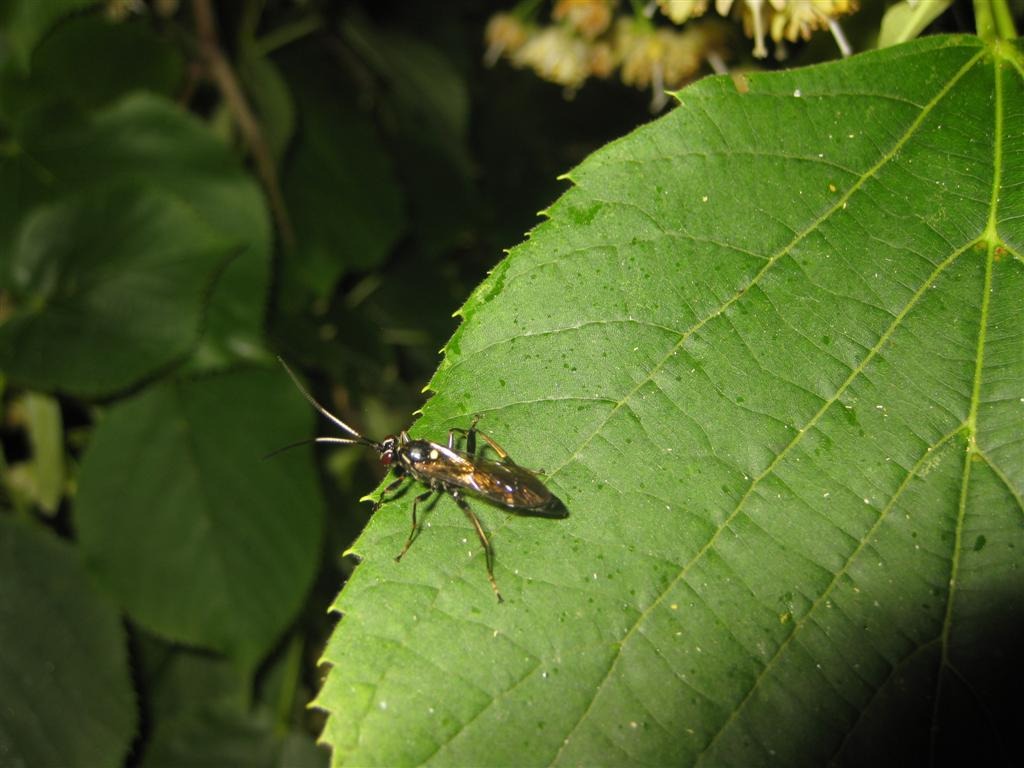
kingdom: Animalia
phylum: Arthropoda
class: Insecta
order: Hymenoptera
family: Ichneumonidae
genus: Hepiopelmus
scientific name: Hepiopelmus melanogaster
